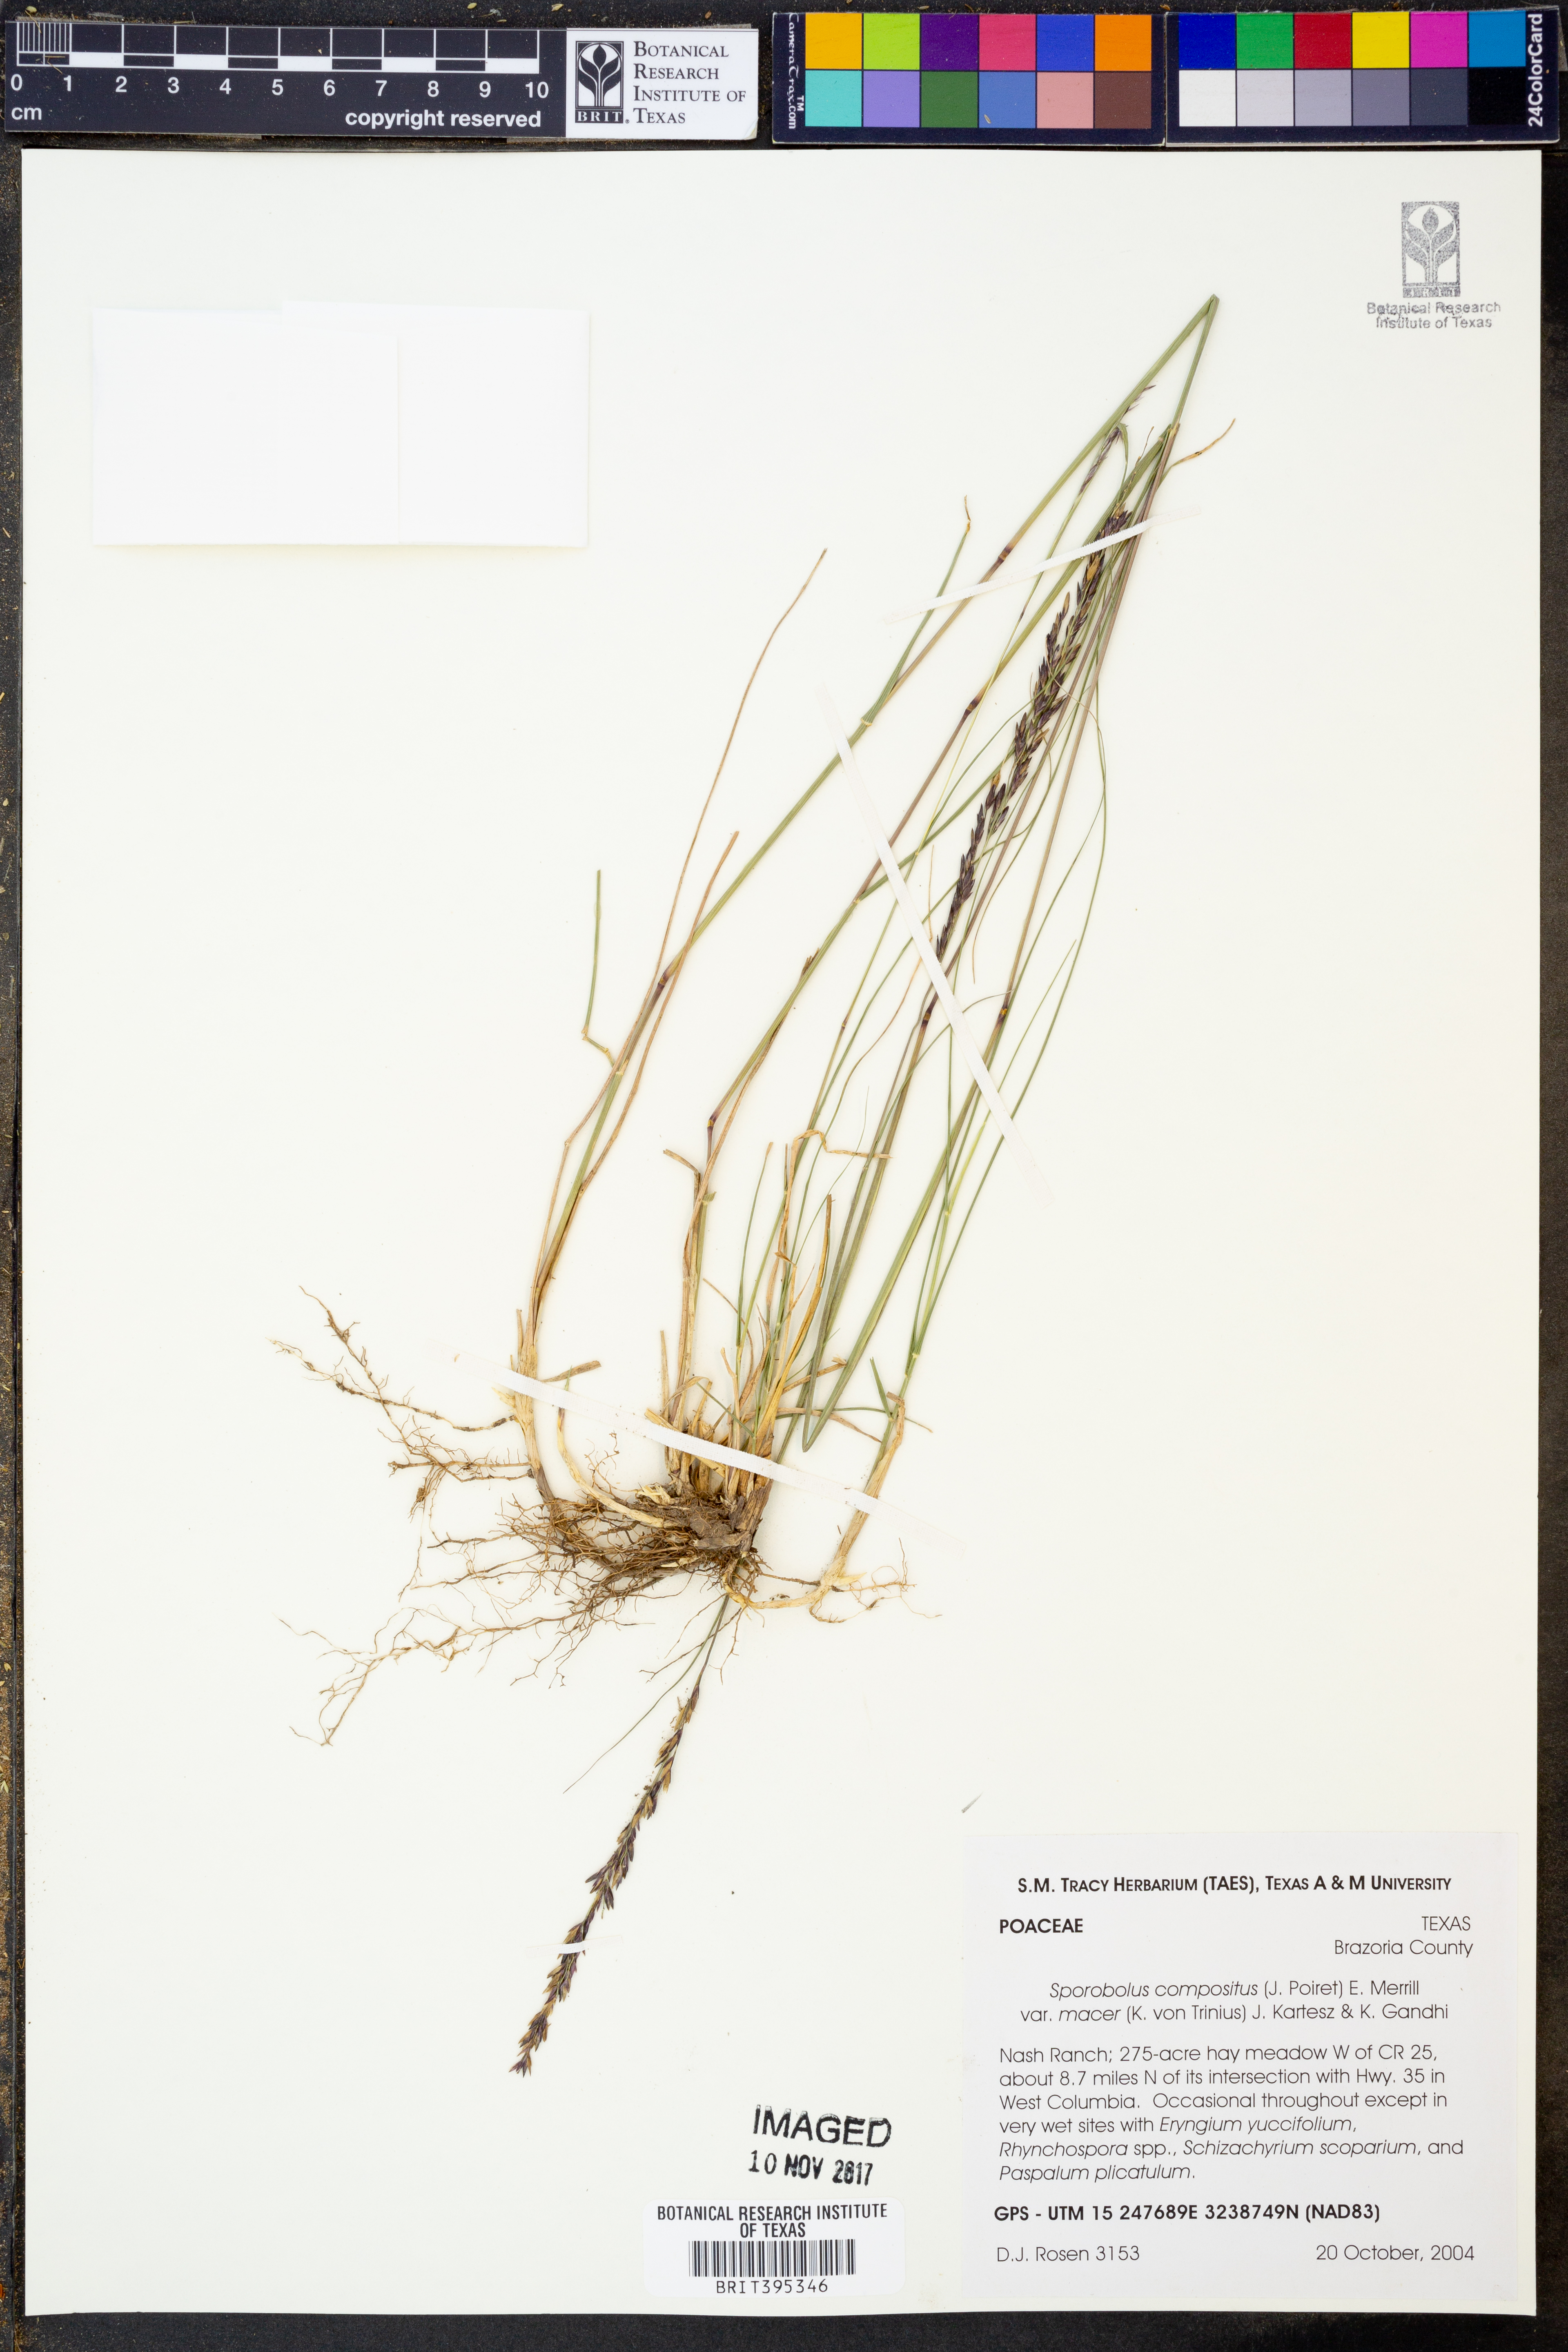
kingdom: Plantae
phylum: Tracheophyta
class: Liliopsida
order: Poales
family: Poaceae
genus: Sporobolus
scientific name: Sporobolus macer
